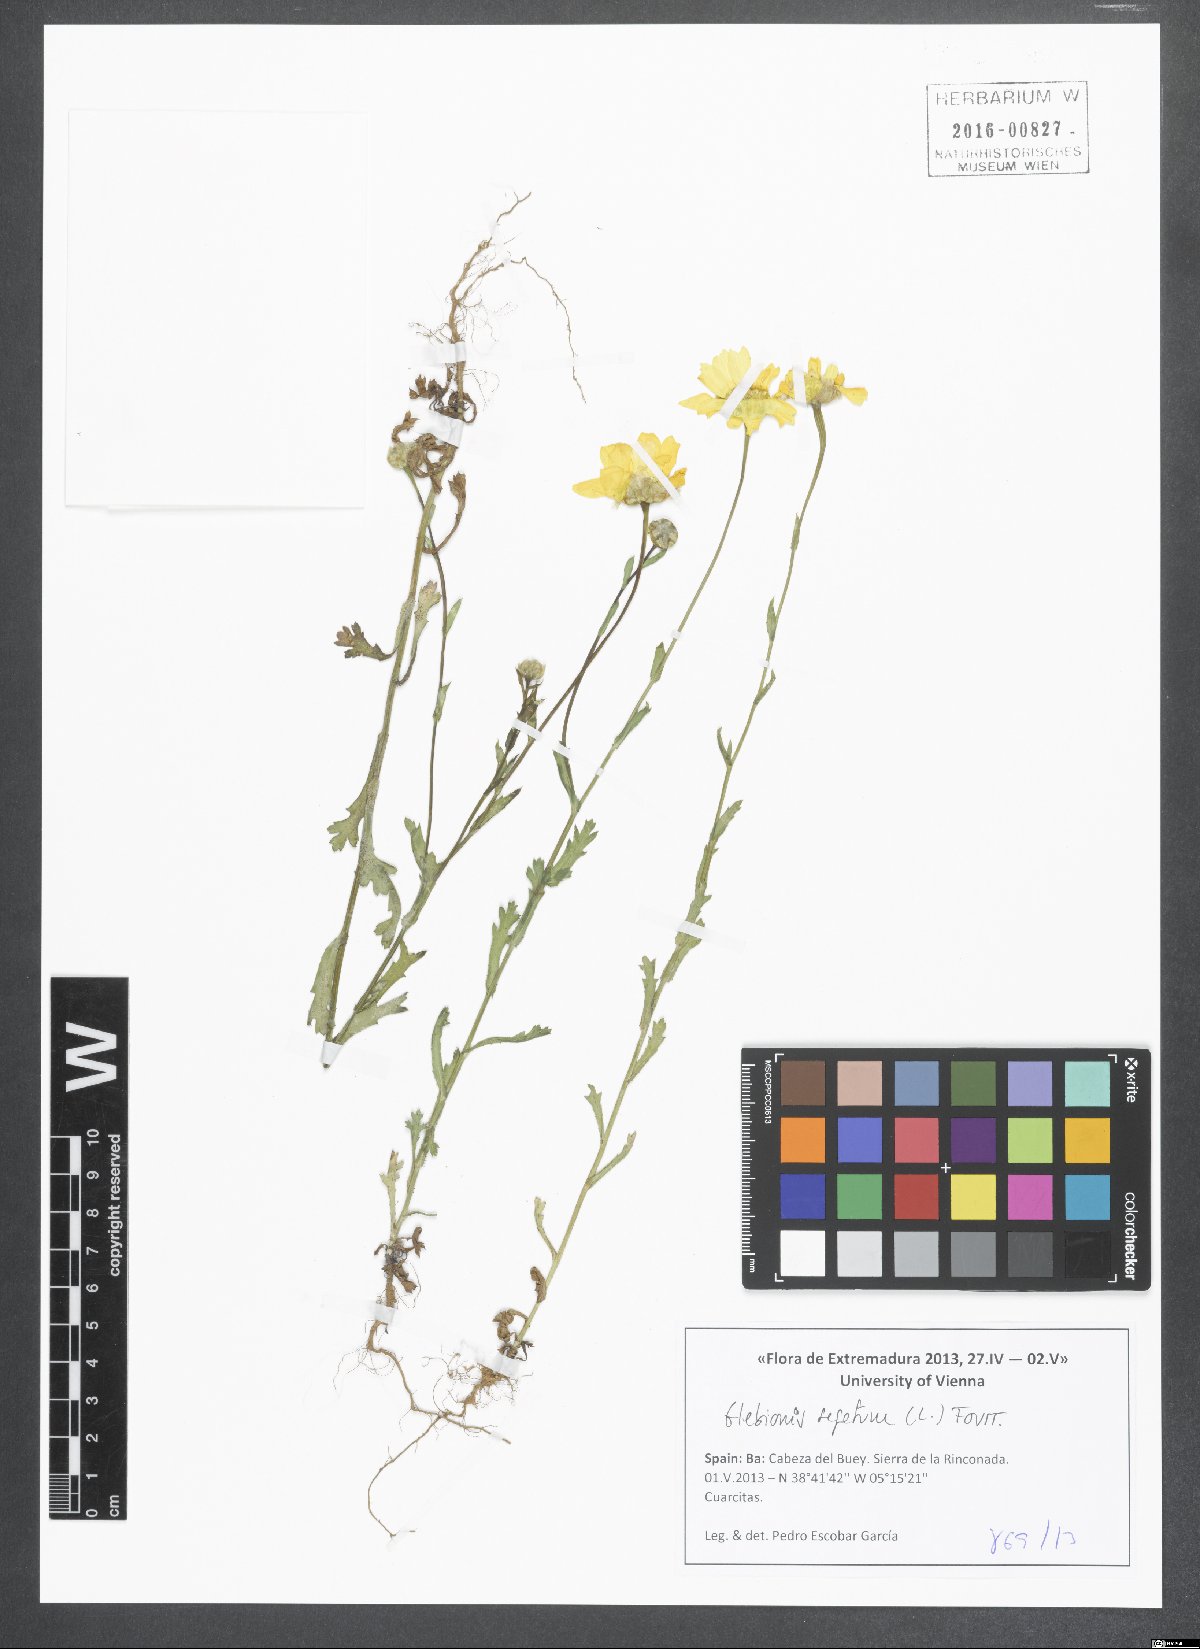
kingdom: Plantae
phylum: Tracheophyta
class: Magnoliopsida
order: Asterales
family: Asteraceae
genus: Glebionis
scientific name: Glebionis segetum
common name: Corndaisy
